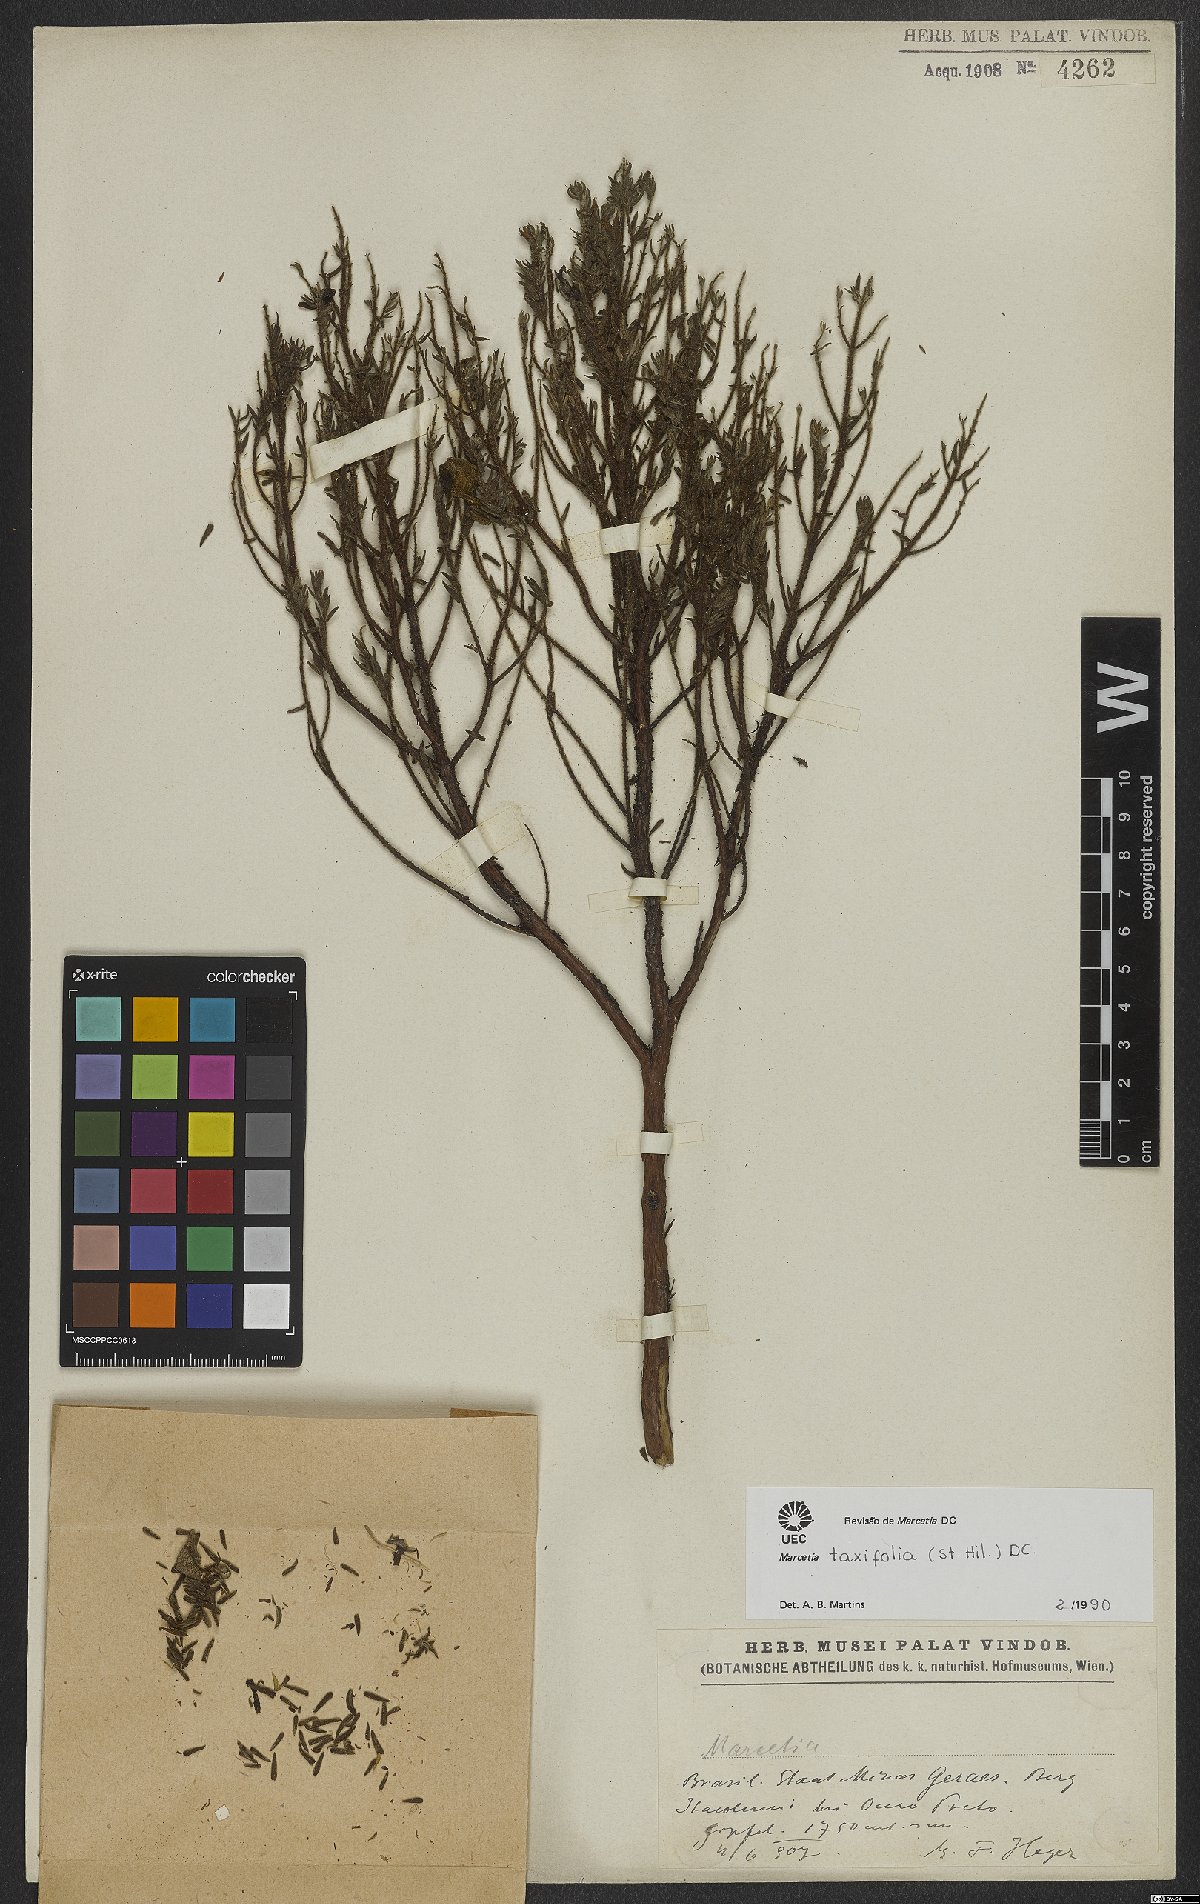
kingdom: Plantae
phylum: Tracheophyta
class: Magnoliopsida
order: Myrtales
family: Melastomataceae
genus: Marcetia
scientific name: Marcetia taxifolia
